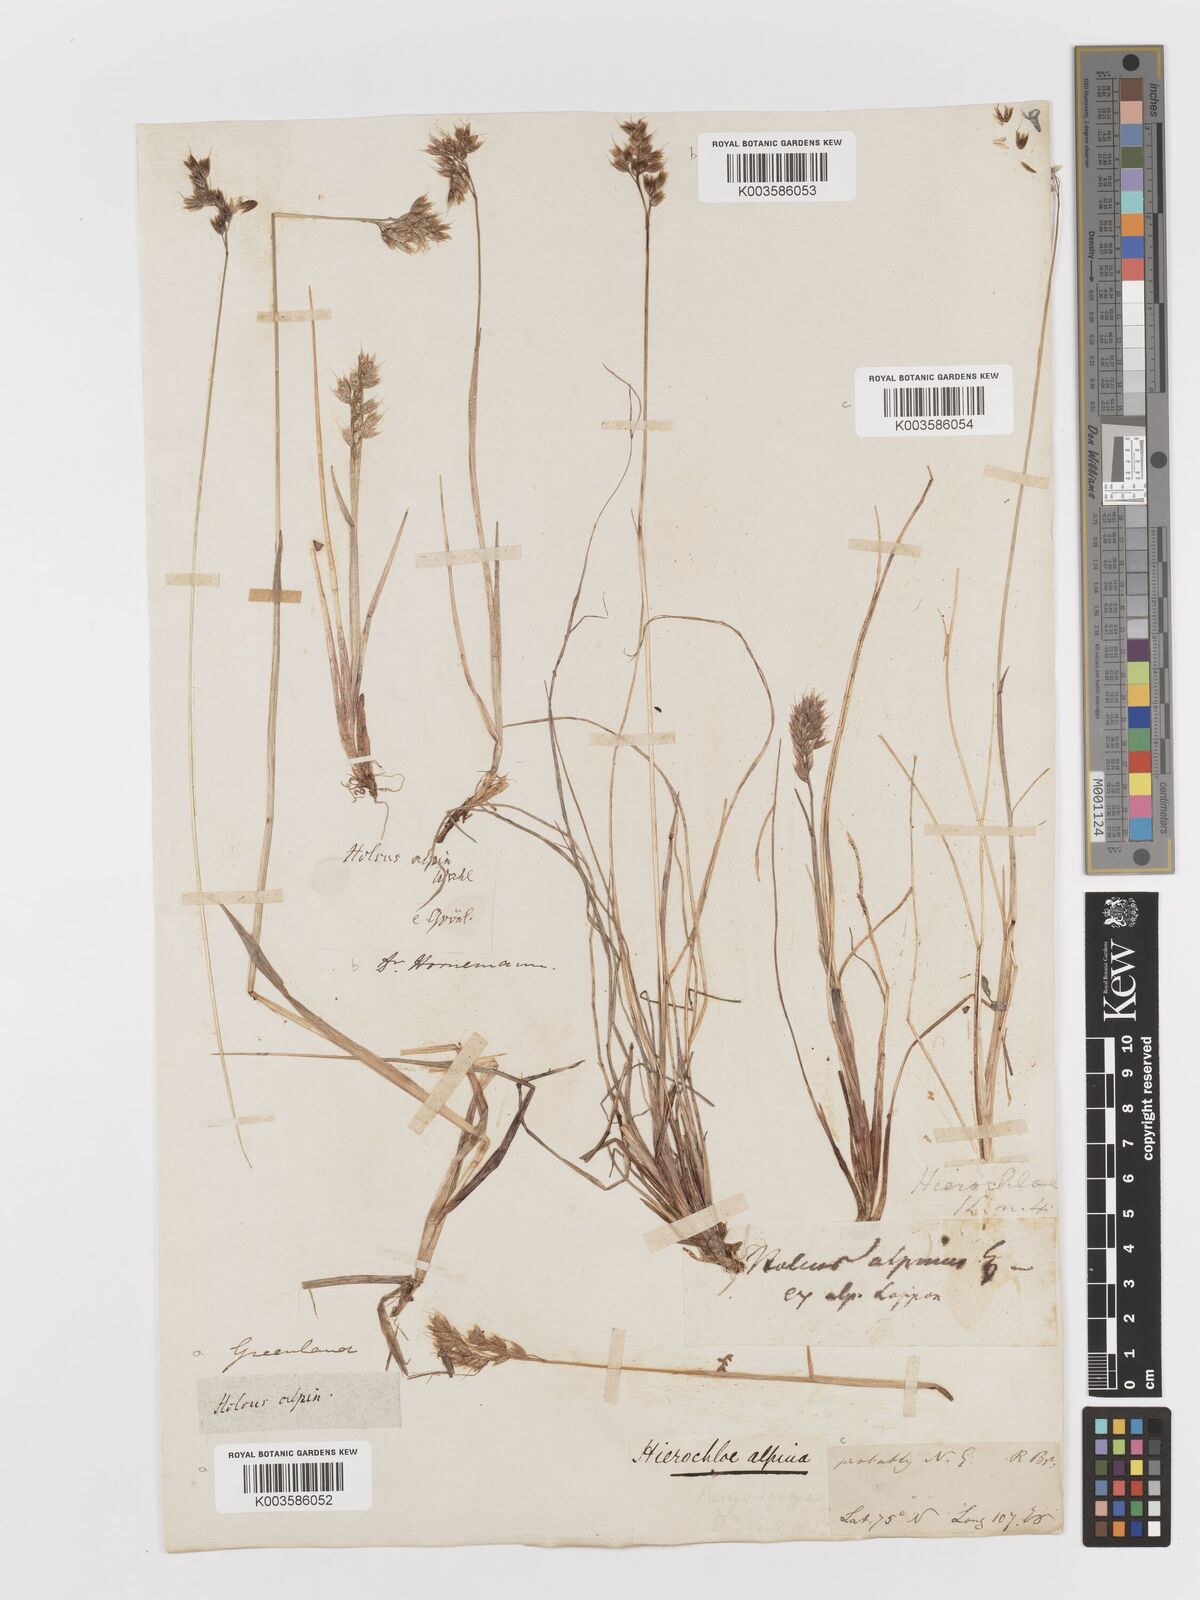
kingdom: Plantae
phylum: Tracheophyta
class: Liliopsida
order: Poales
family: Poaceae
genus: Anthoxanthum
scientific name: Anthoxanthum monticola
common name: Alpine sweetgrass
